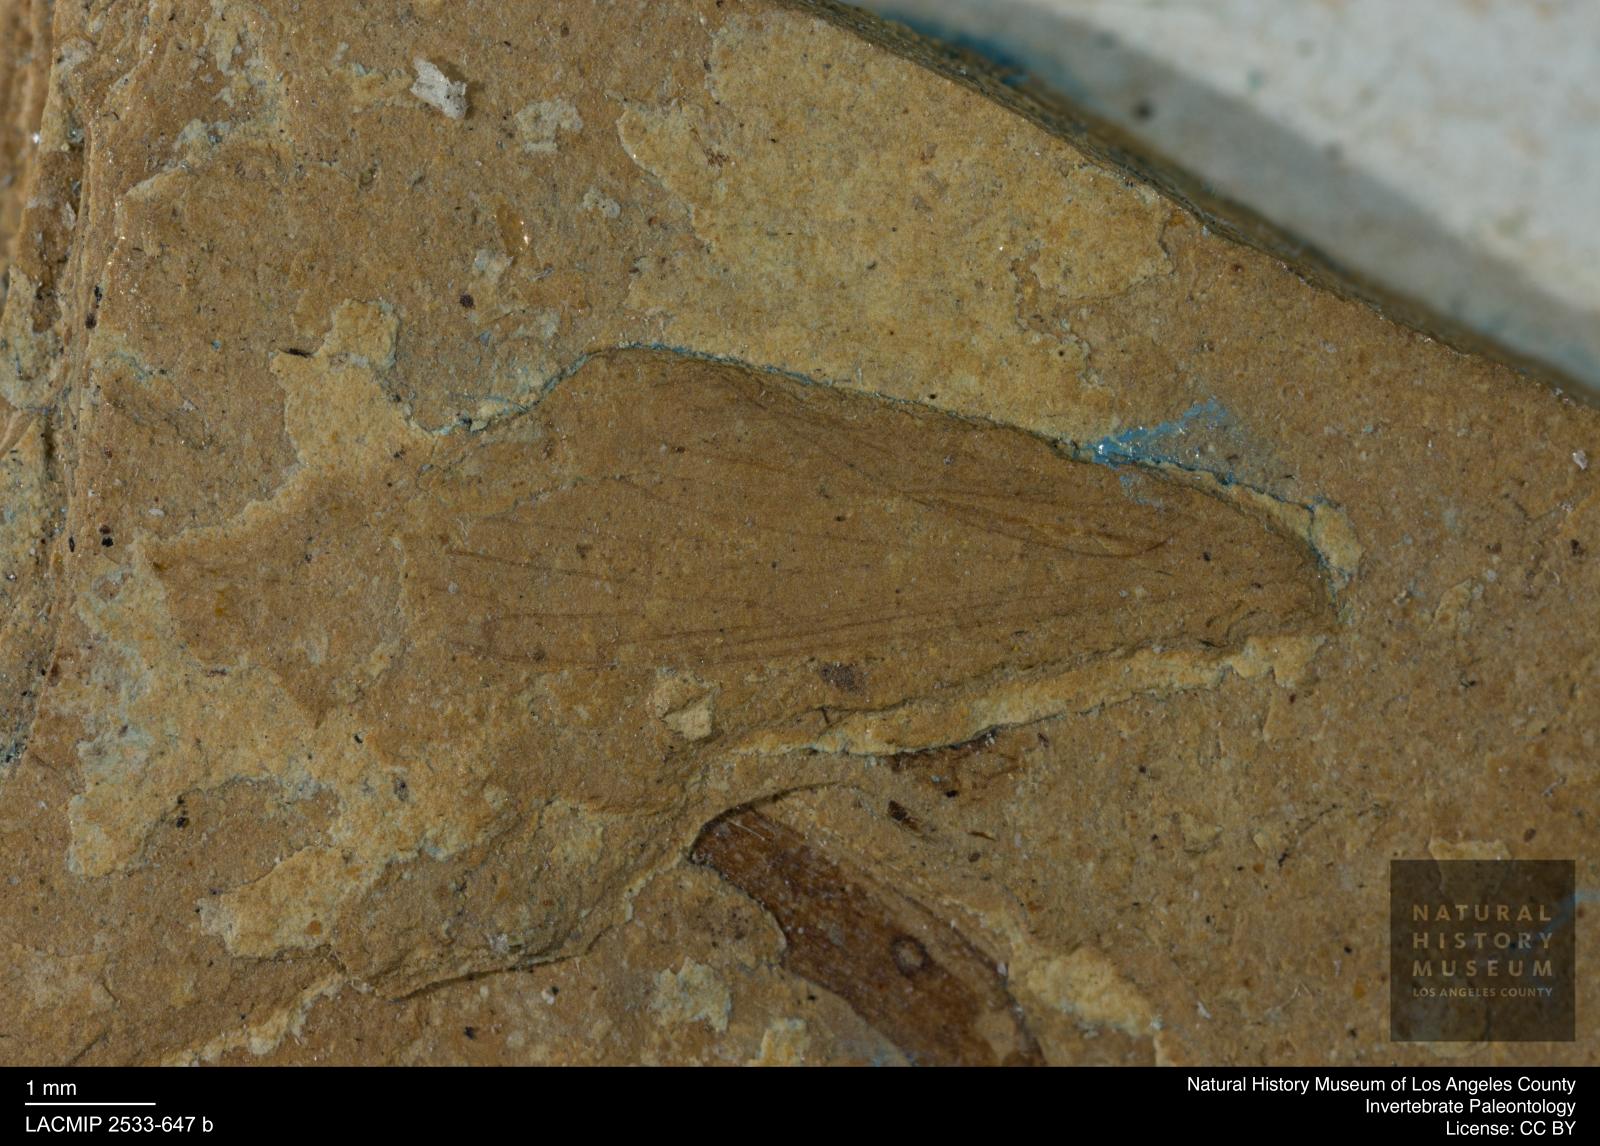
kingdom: Animalia
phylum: Arthropoda
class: Insecta
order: Diptera
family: Limoniidae
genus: Limnophila
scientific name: Limnophila
